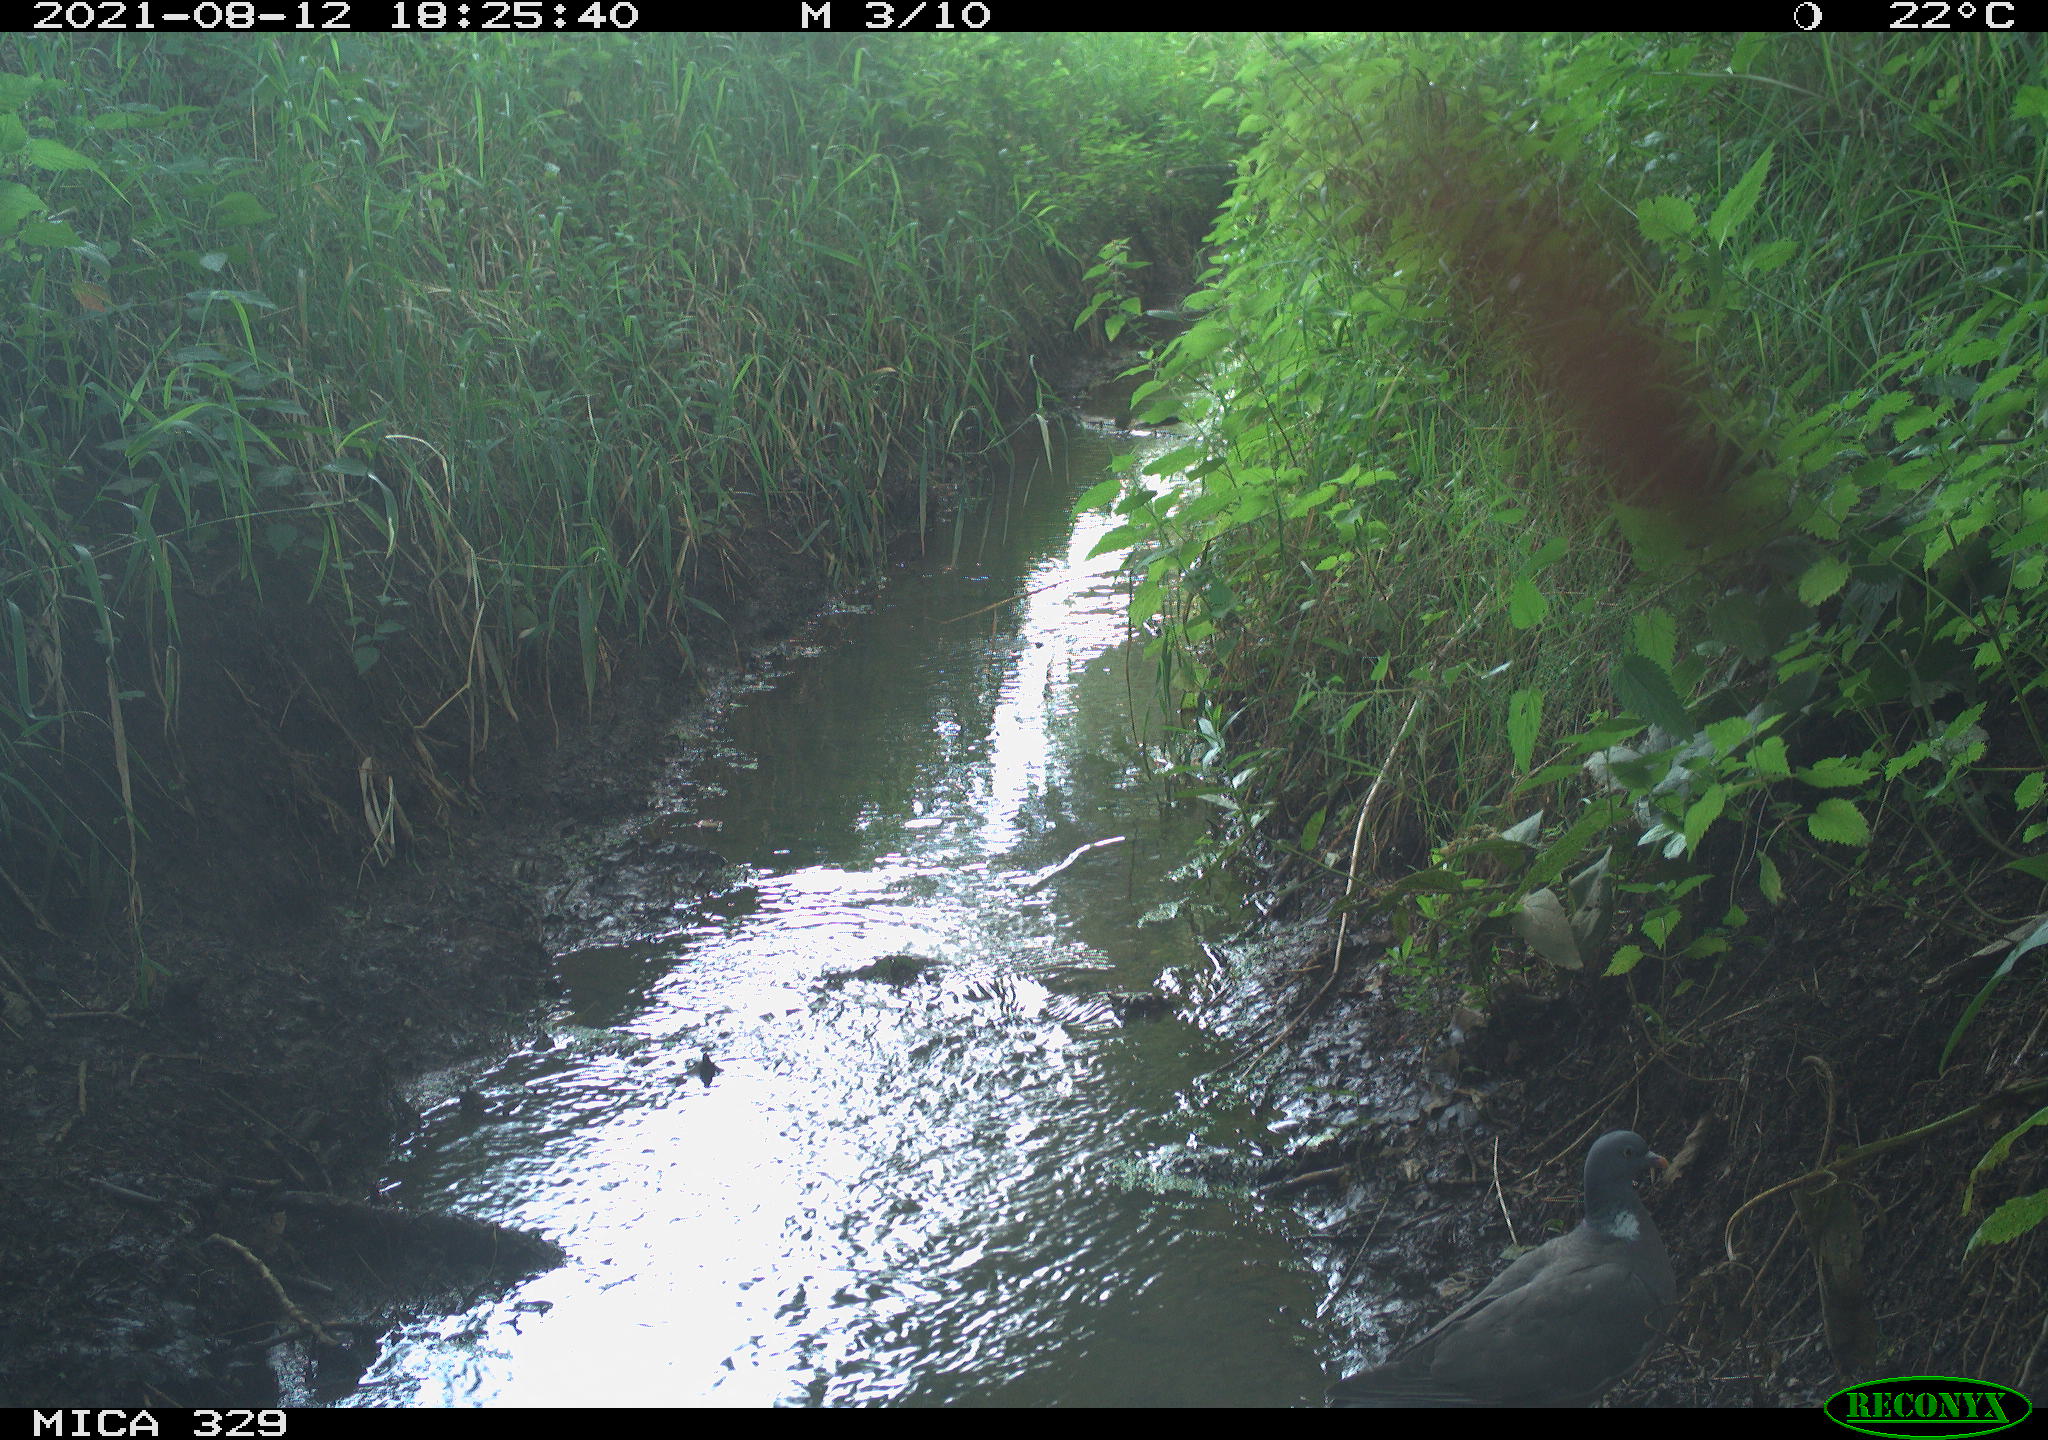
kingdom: Animalia
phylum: Chordata
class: Aves
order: Columbiformes
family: Columbidae
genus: Columba
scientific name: Columba palumbus
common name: Common wood pigeon
